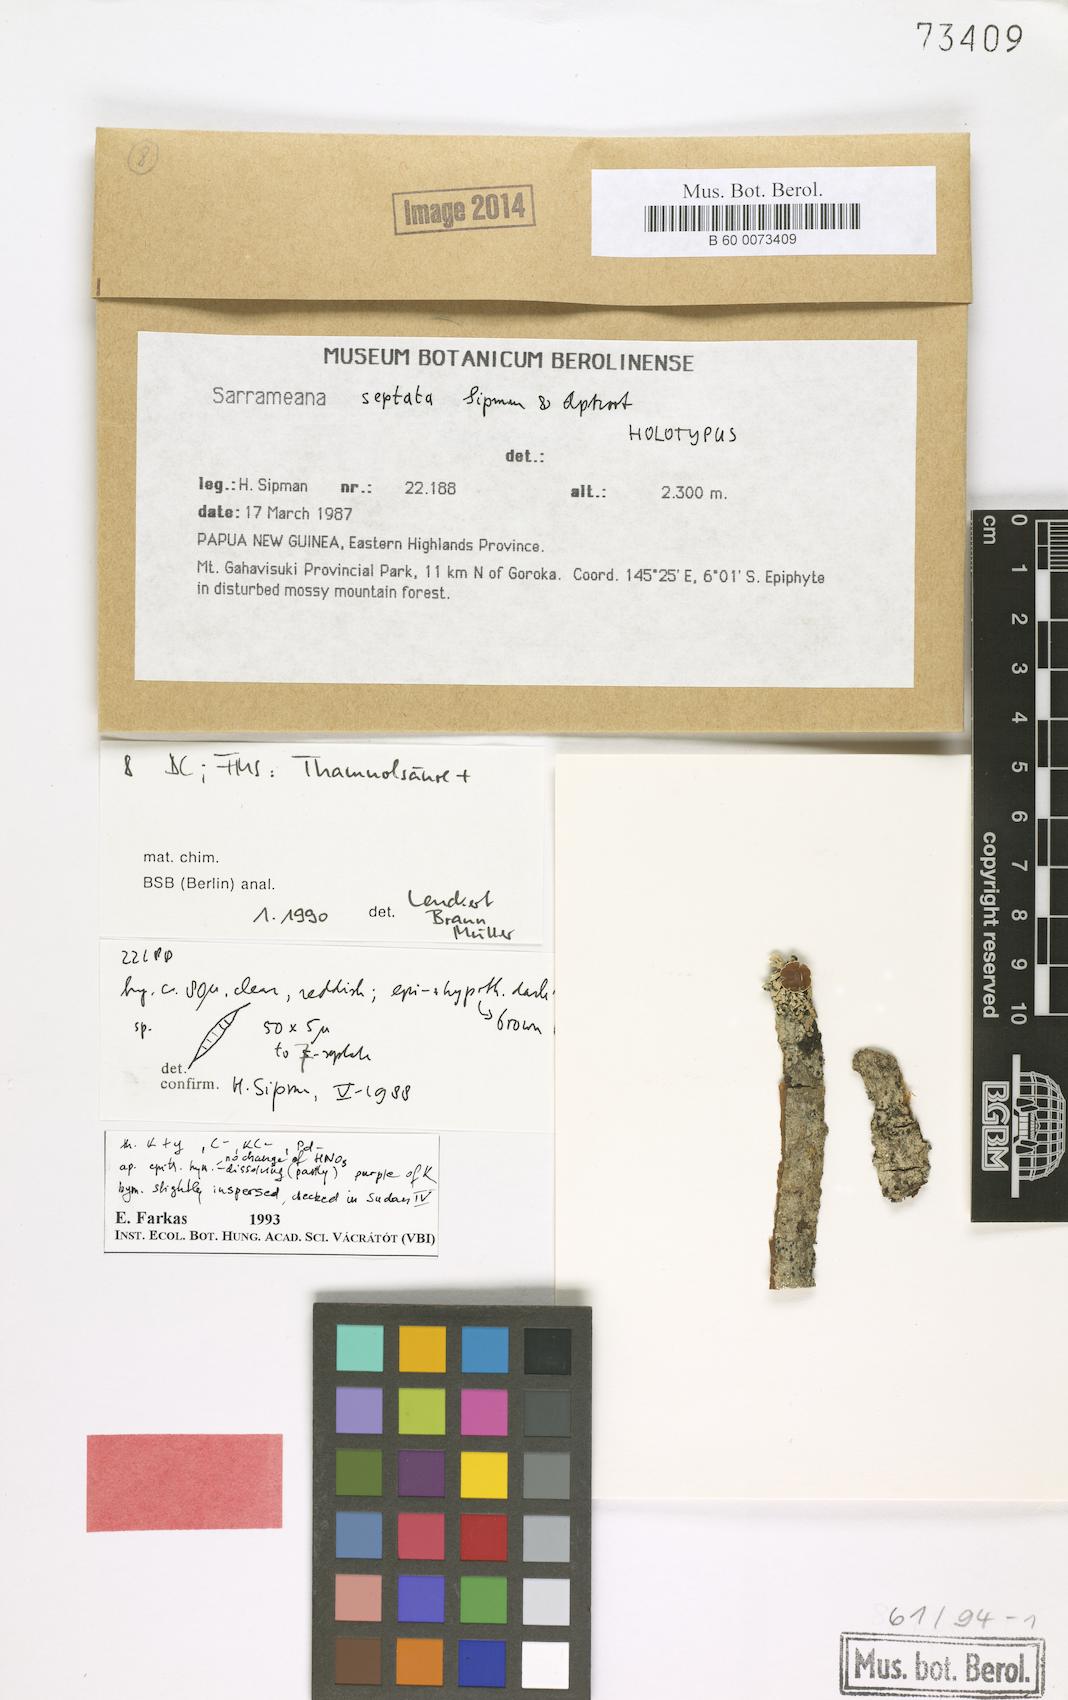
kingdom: Fungi
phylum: Ascomycota
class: Lecanoromycetes
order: Lecanorales
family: Sarrameanaceae
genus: Loxospora
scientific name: Loxospora septata
